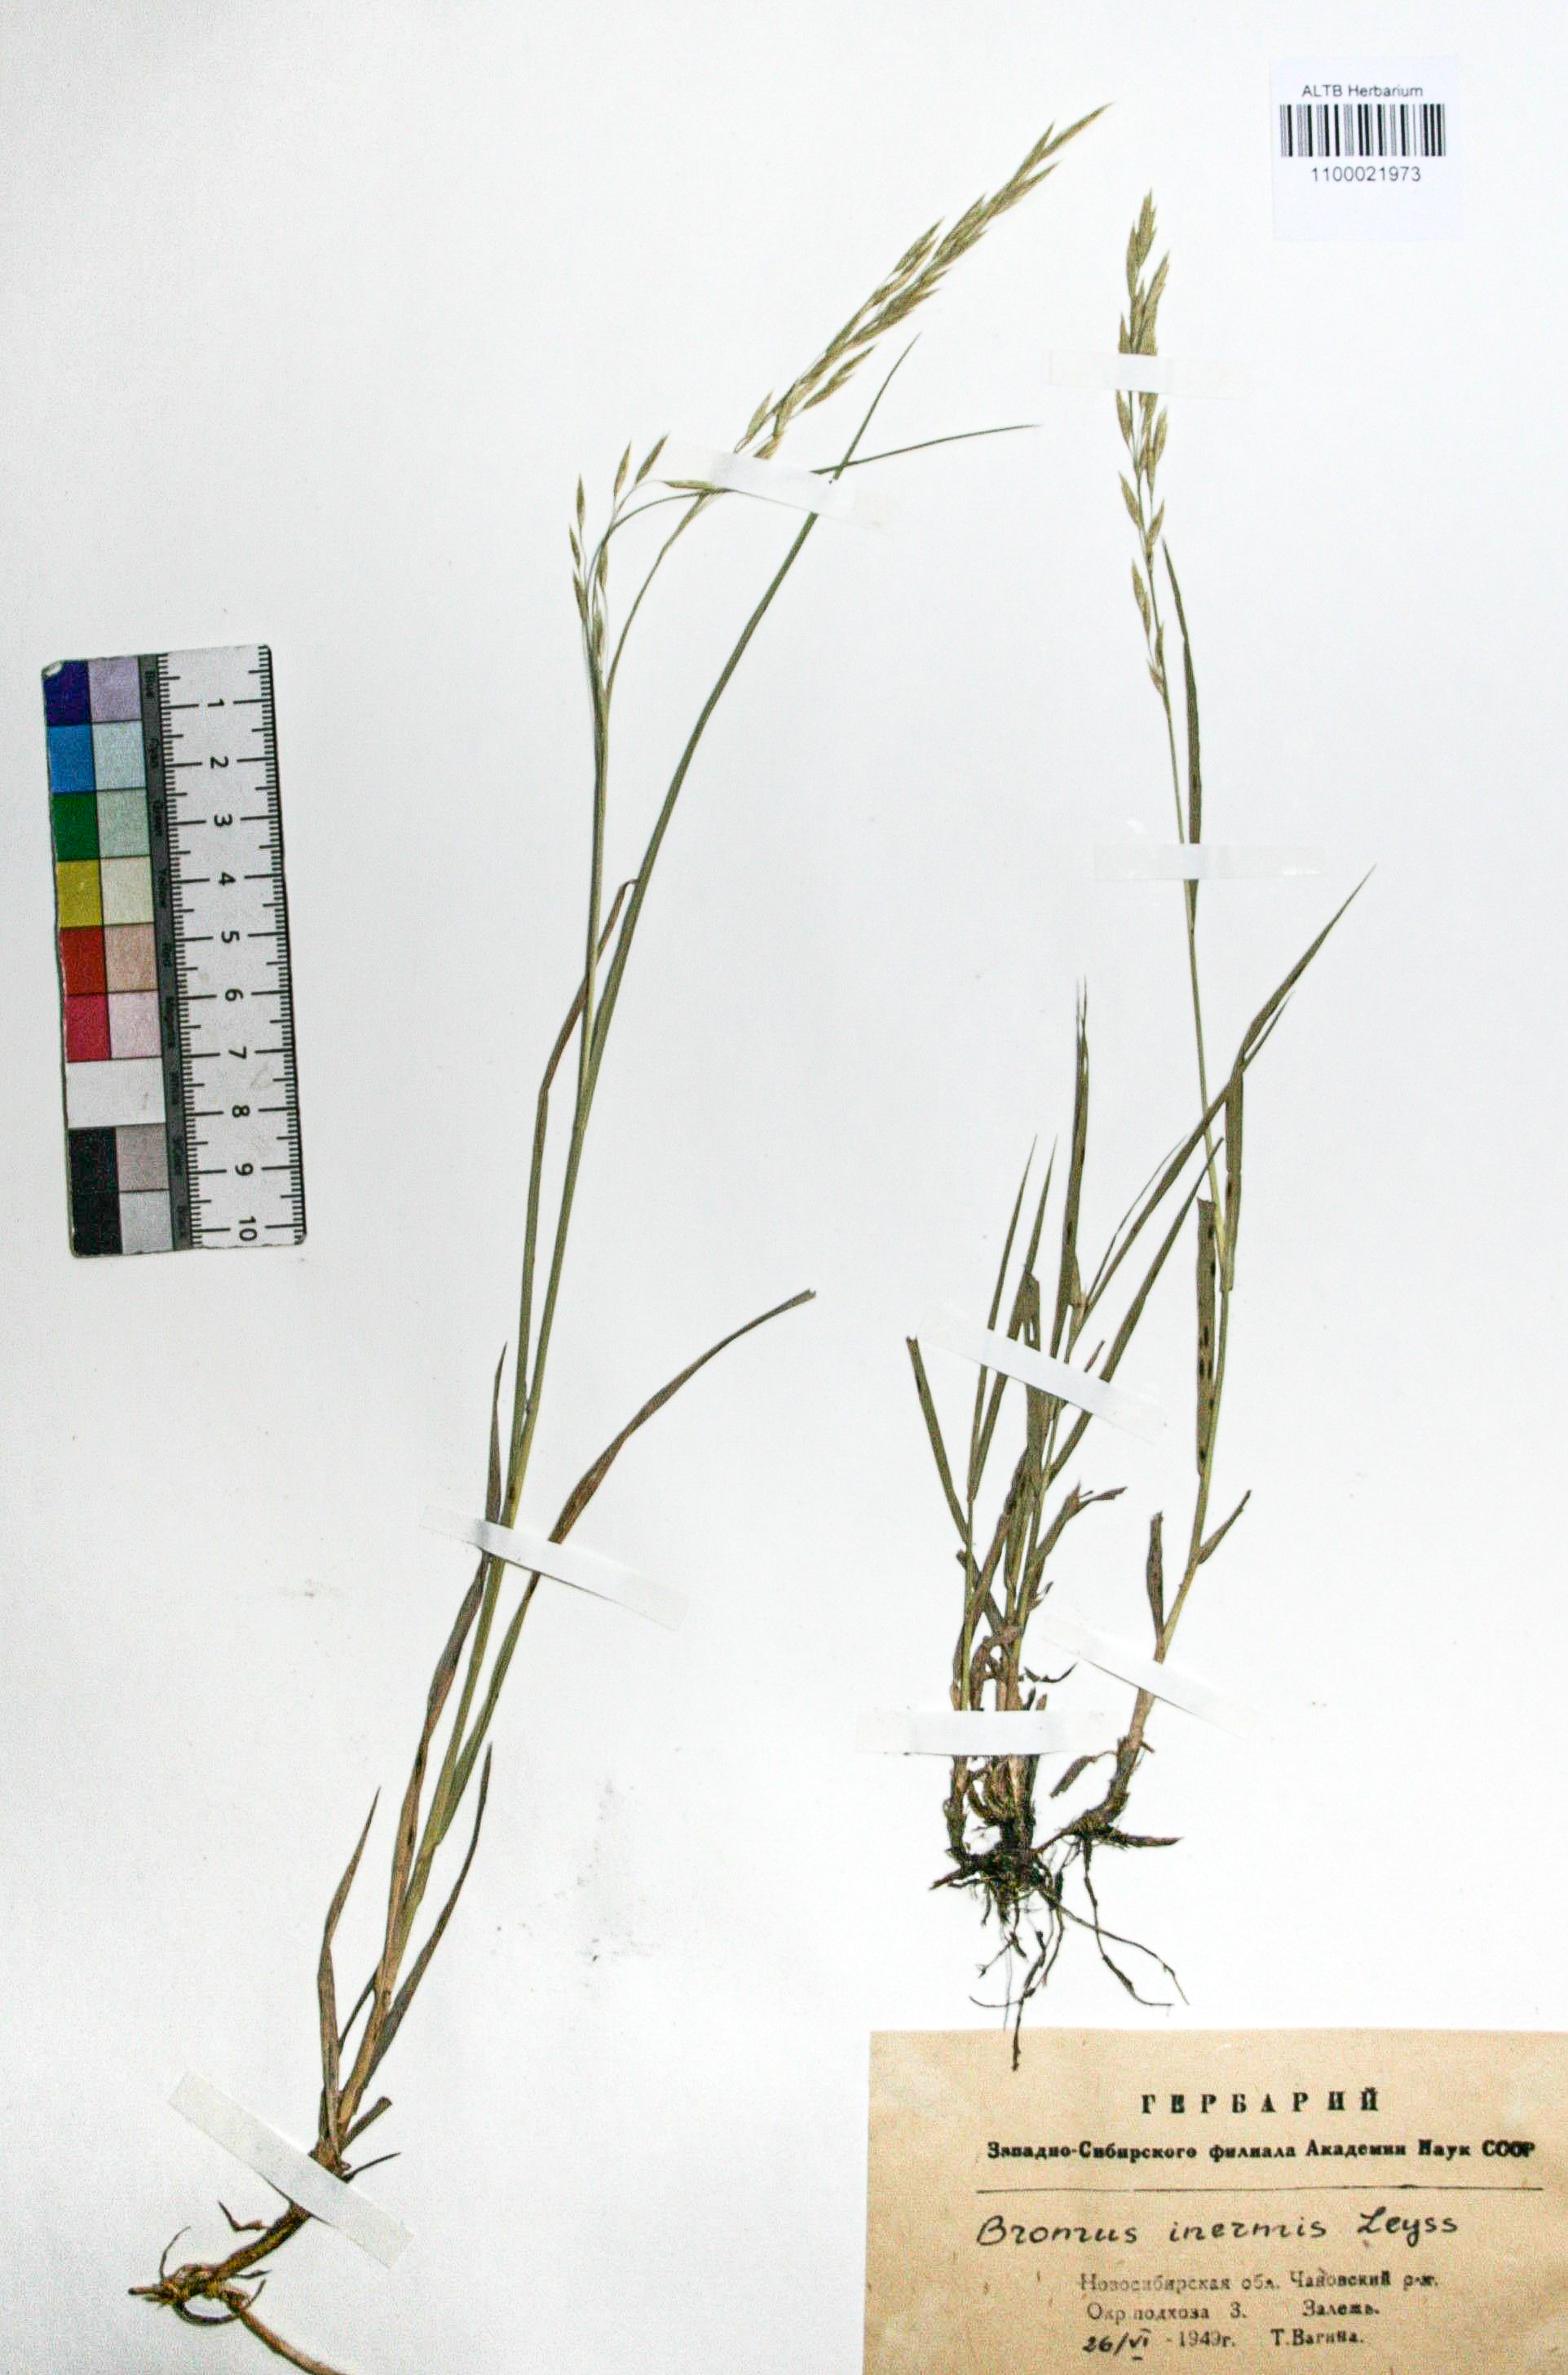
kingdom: Plantae
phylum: Tracheophyta
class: Liliopsida
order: Poales
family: Poaceae
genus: Bromus
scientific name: Bromus inermis
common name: Smooth brome
